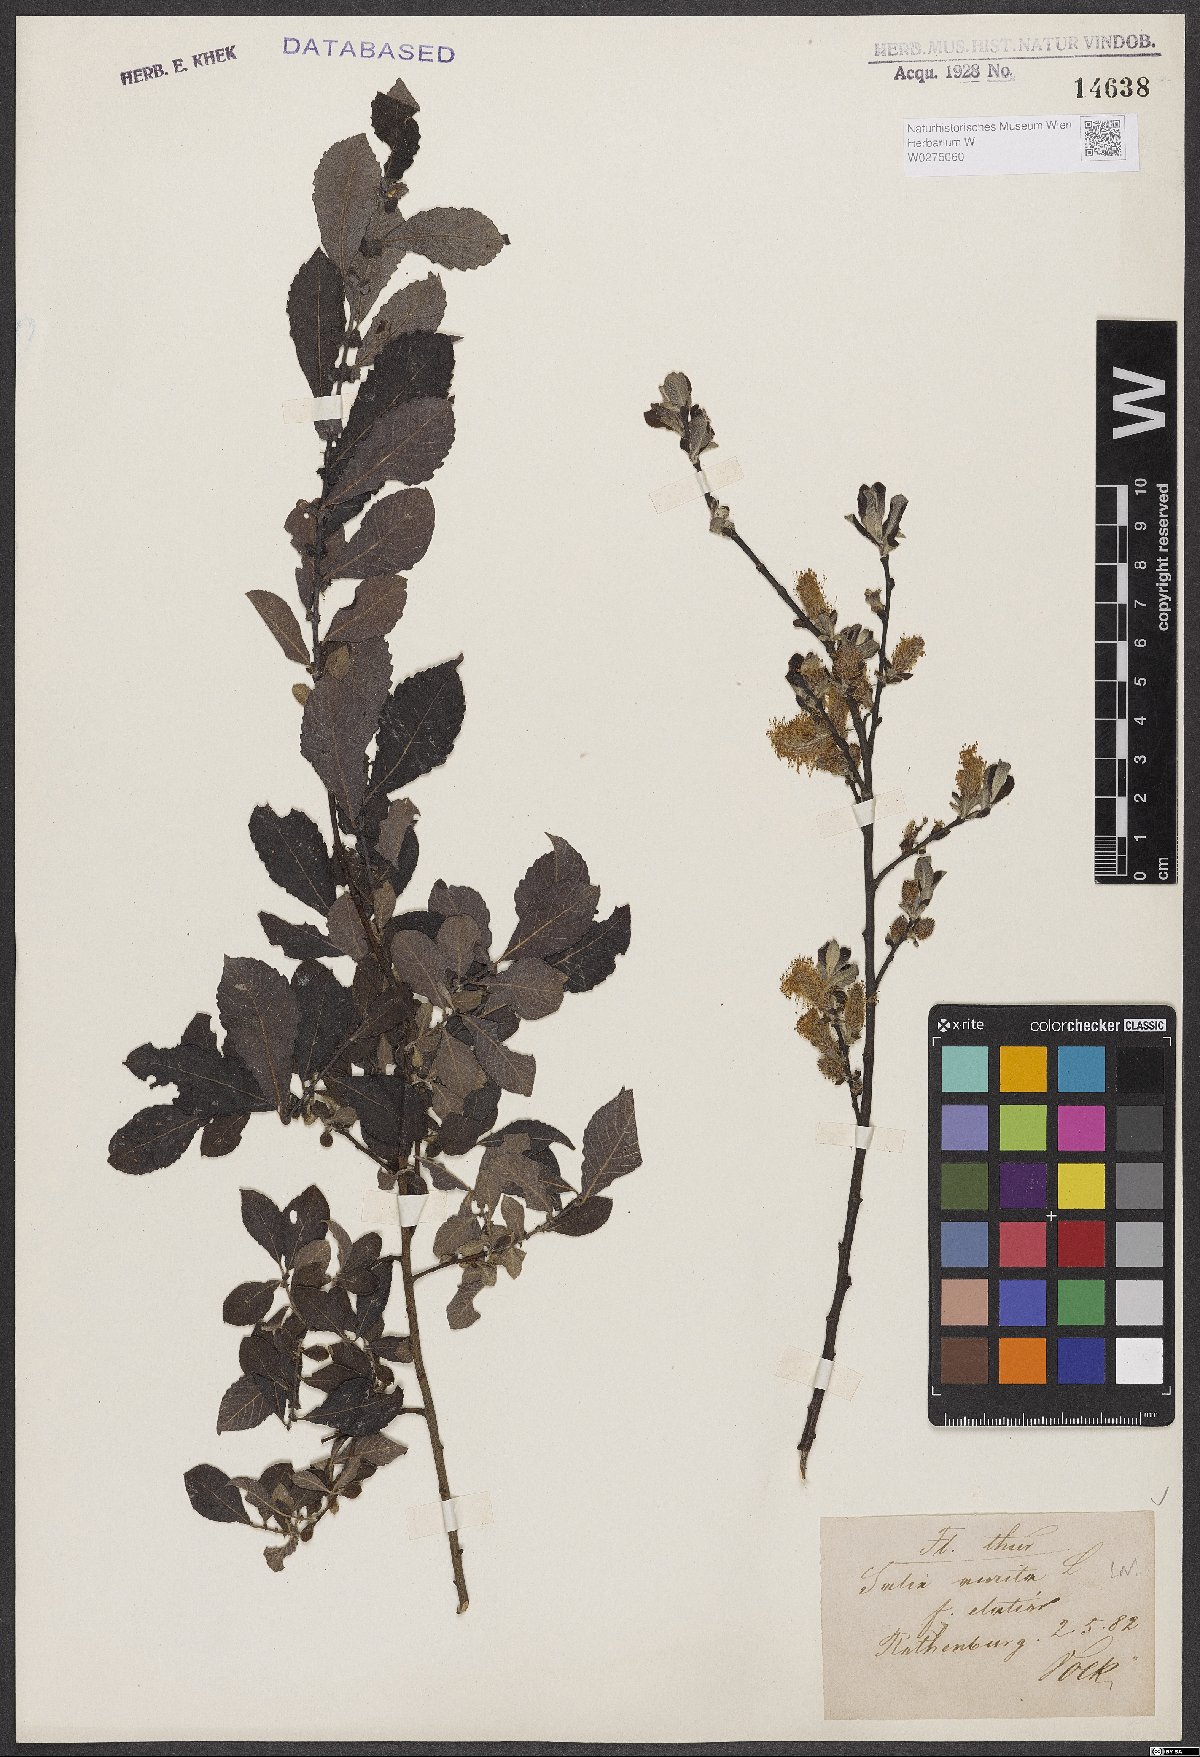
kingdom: Plantae
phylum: Tracheophyta
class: Magnoliopsida
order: Malpighiales
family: Salicaceae
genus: Salix
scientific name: Salix aurita
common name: Eared willow
